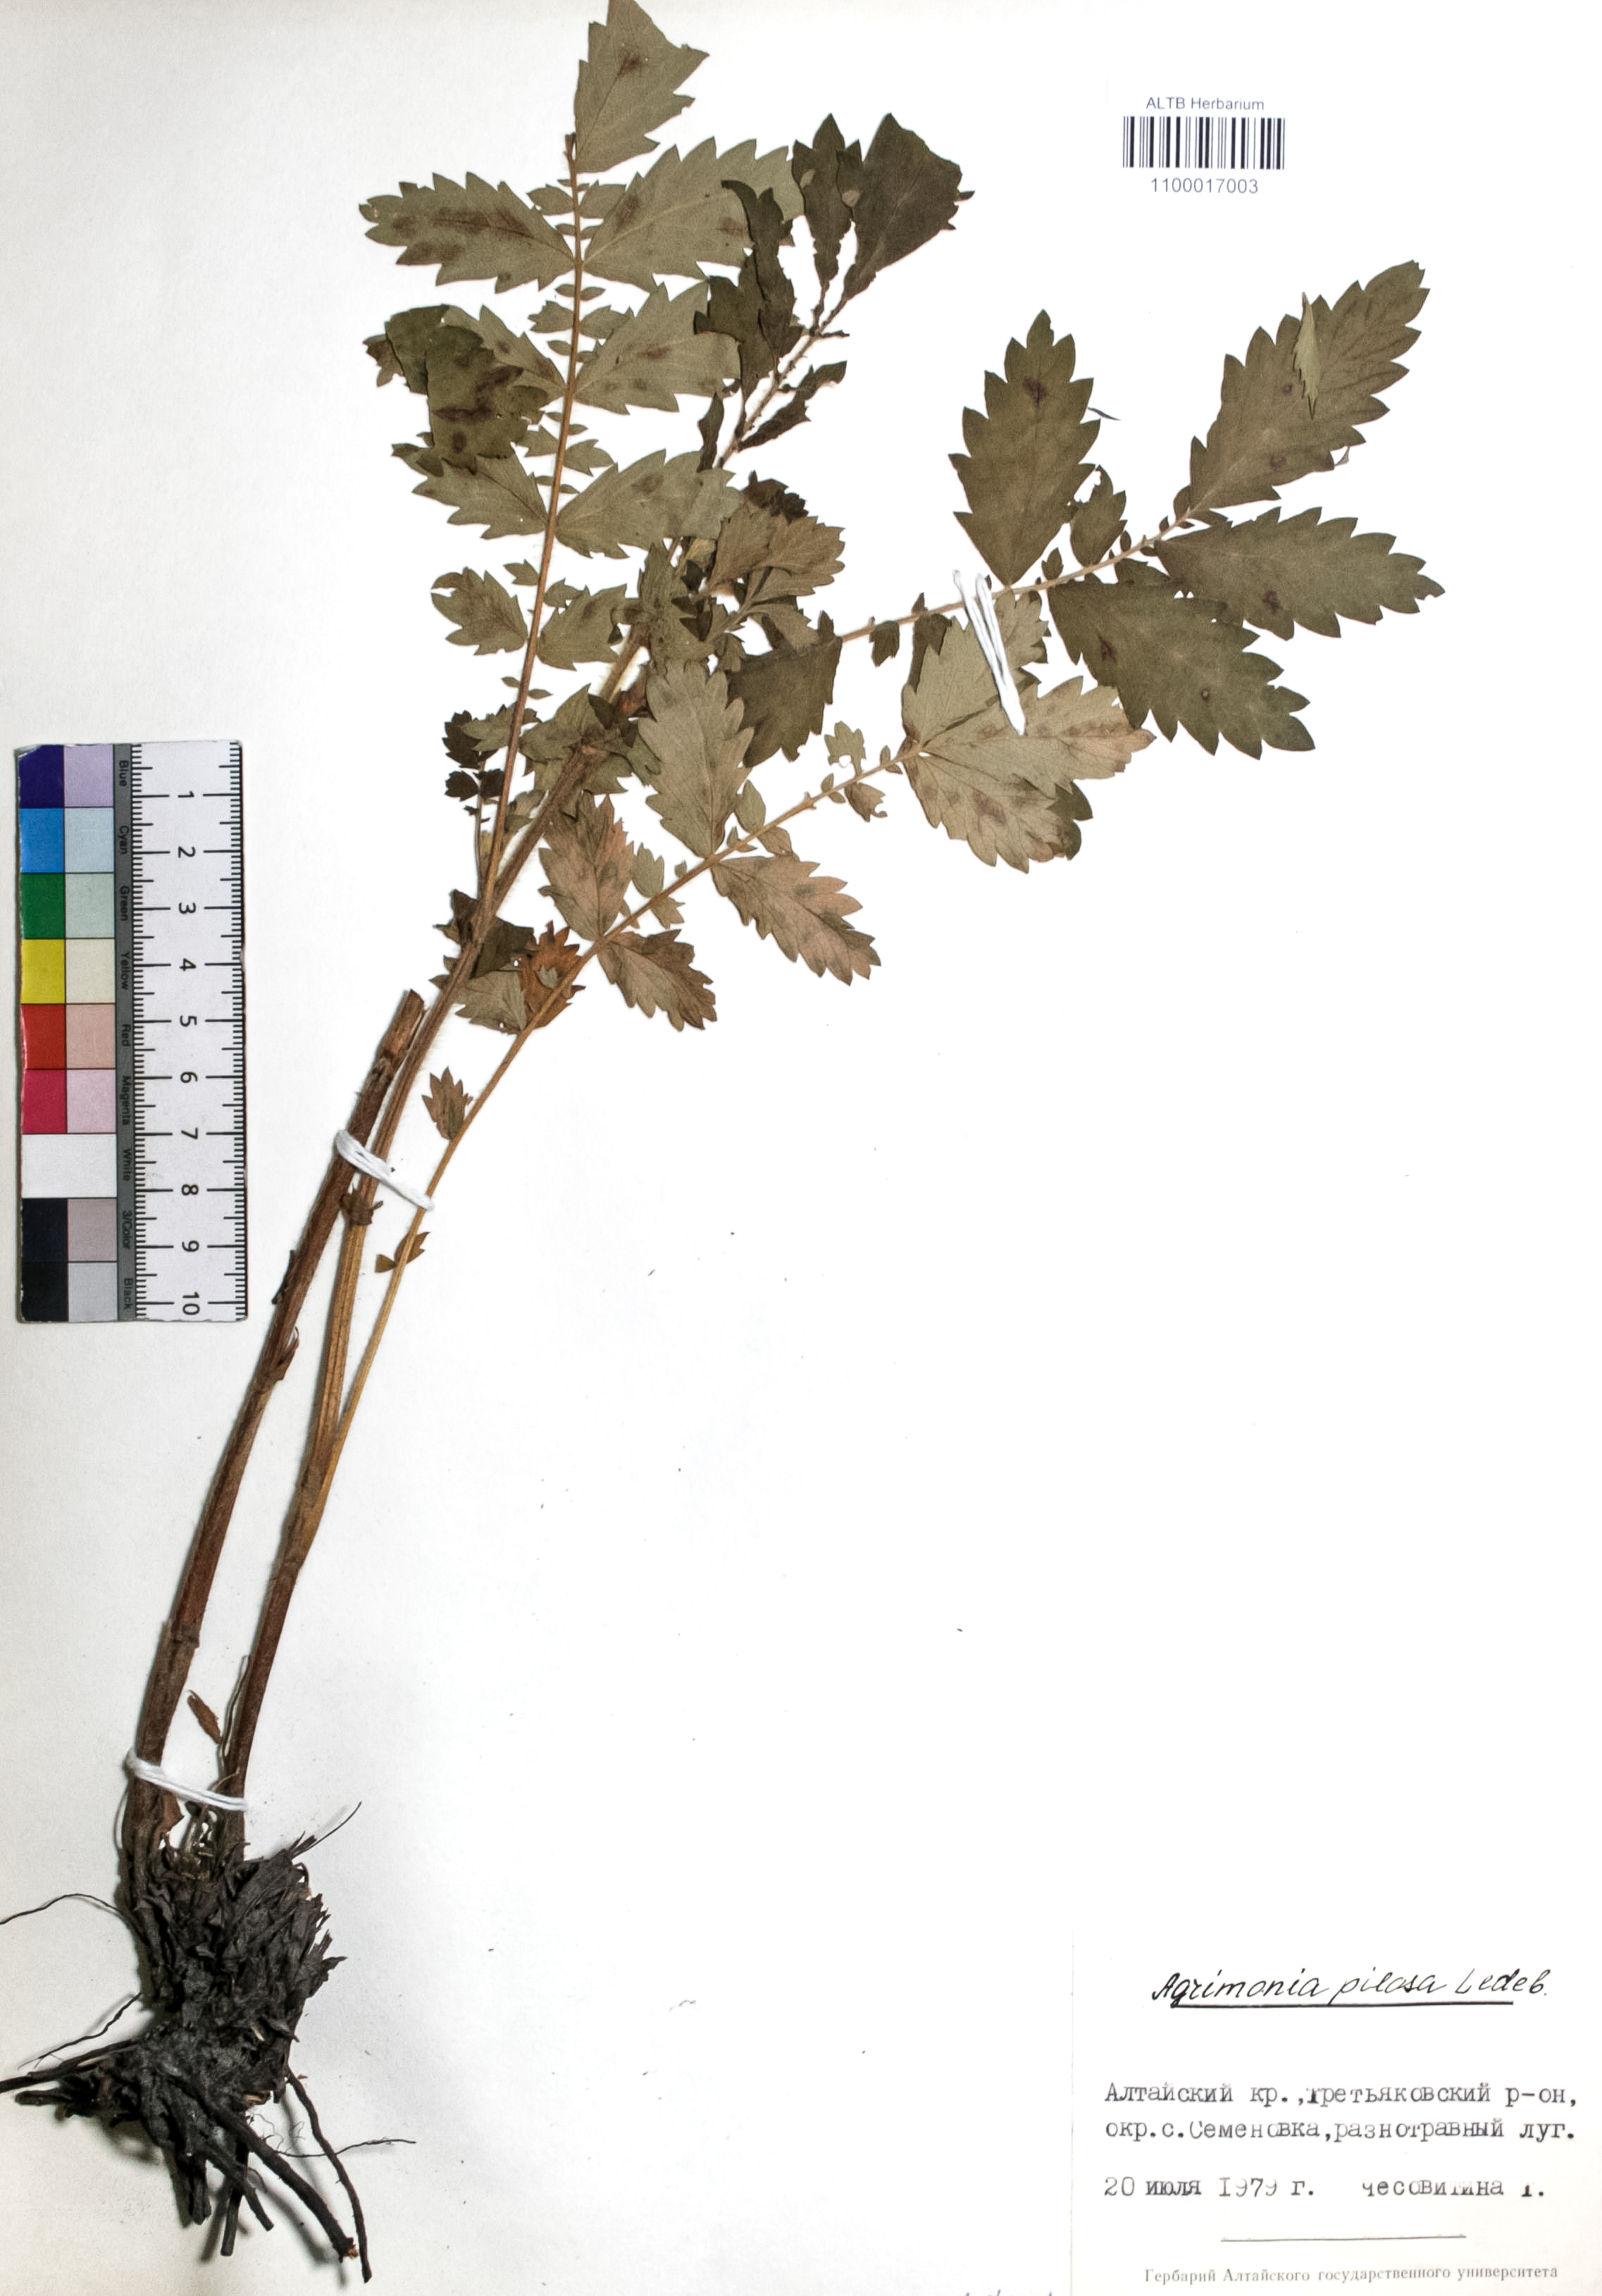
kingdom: Plantae
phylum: Tracheophyta
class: Magnoliopsida
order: Rosales
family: Rosaceae
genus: Agrimonia
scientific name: Agrimonia pilosa
